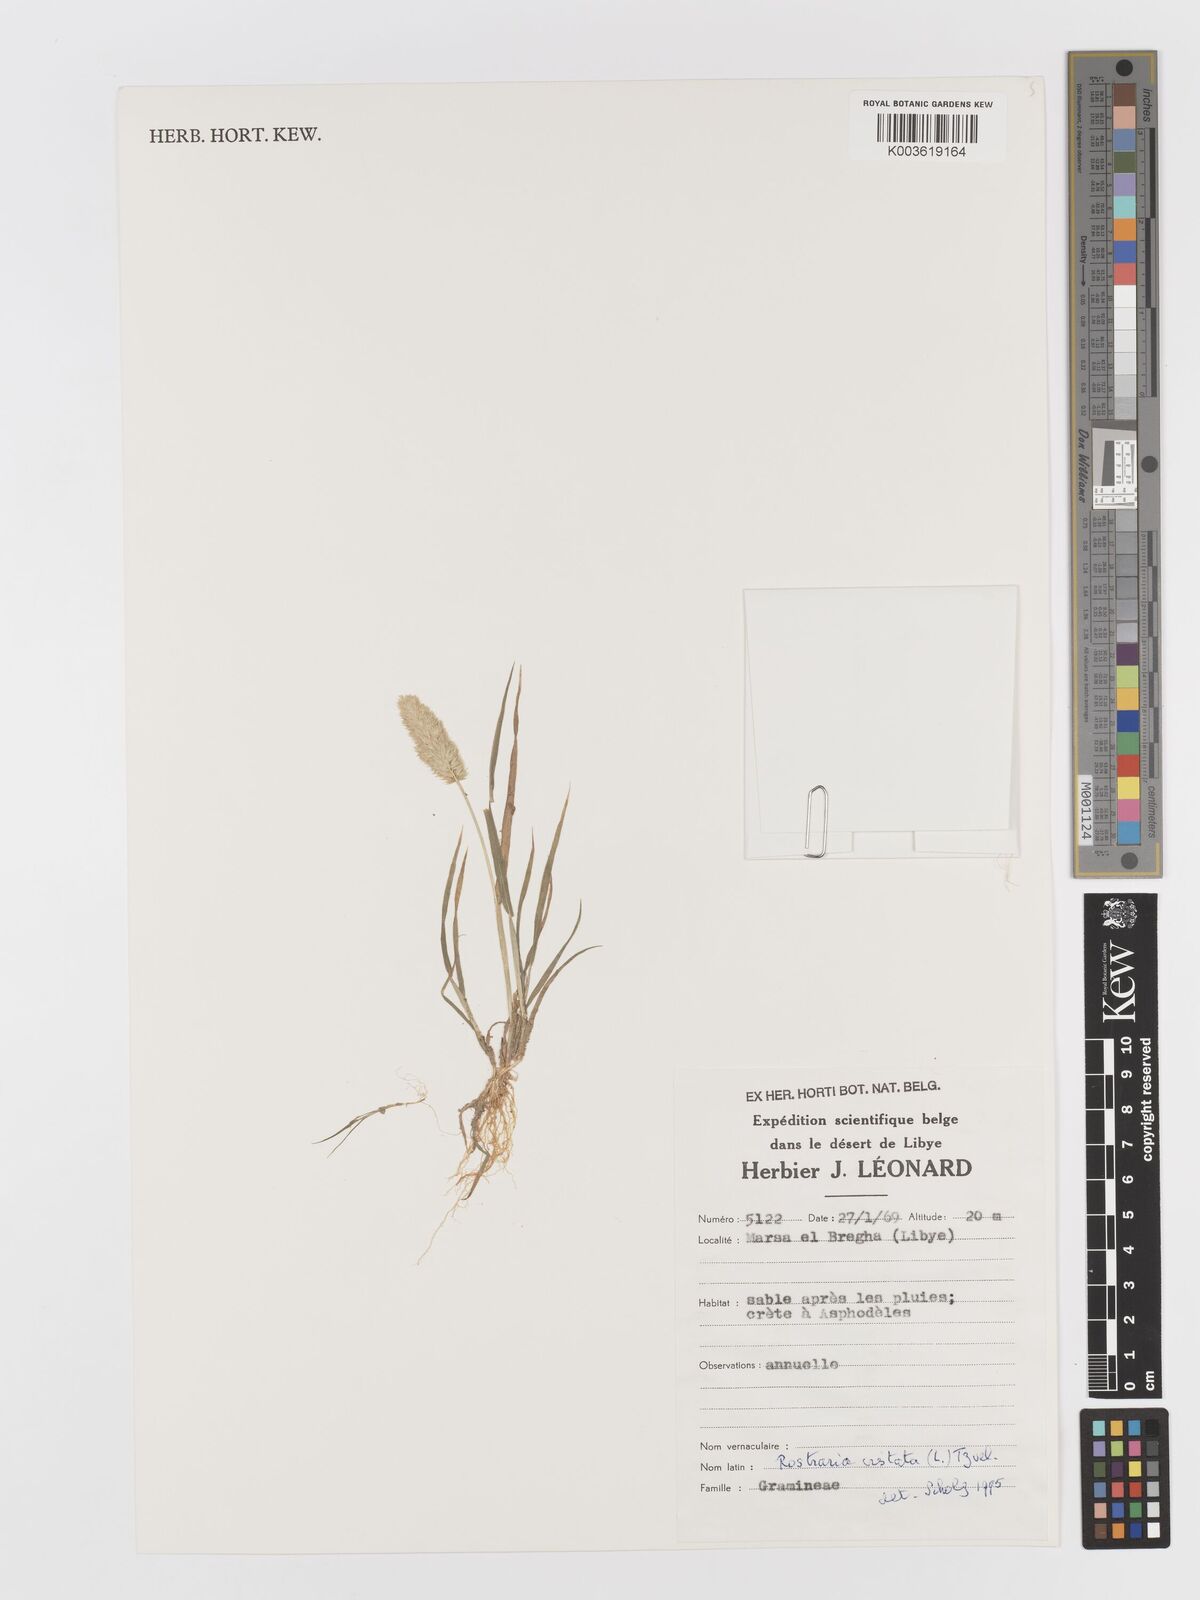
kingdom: Plantae
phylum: Tracheophyta
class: Liliopsida
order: Poales
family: Poaceae
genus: Rostraria
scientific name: Rostraria cristata
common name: Mediterranean hair-grass
